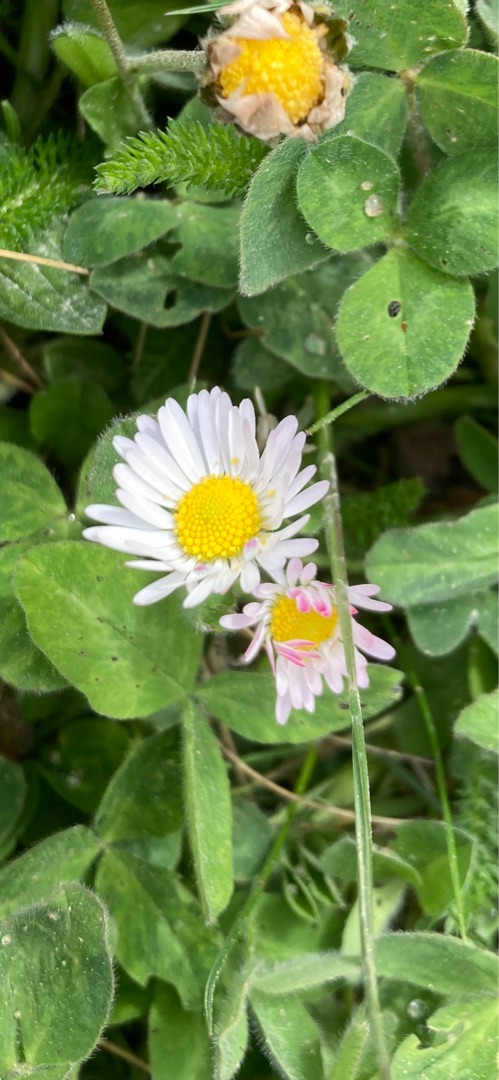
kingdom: Plantae
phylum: Tracheophyta
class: Magnoliopsida
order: Asterales
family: Asteraceae
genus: Bellis
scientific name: Bellis perennis
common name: Tusindfryd
